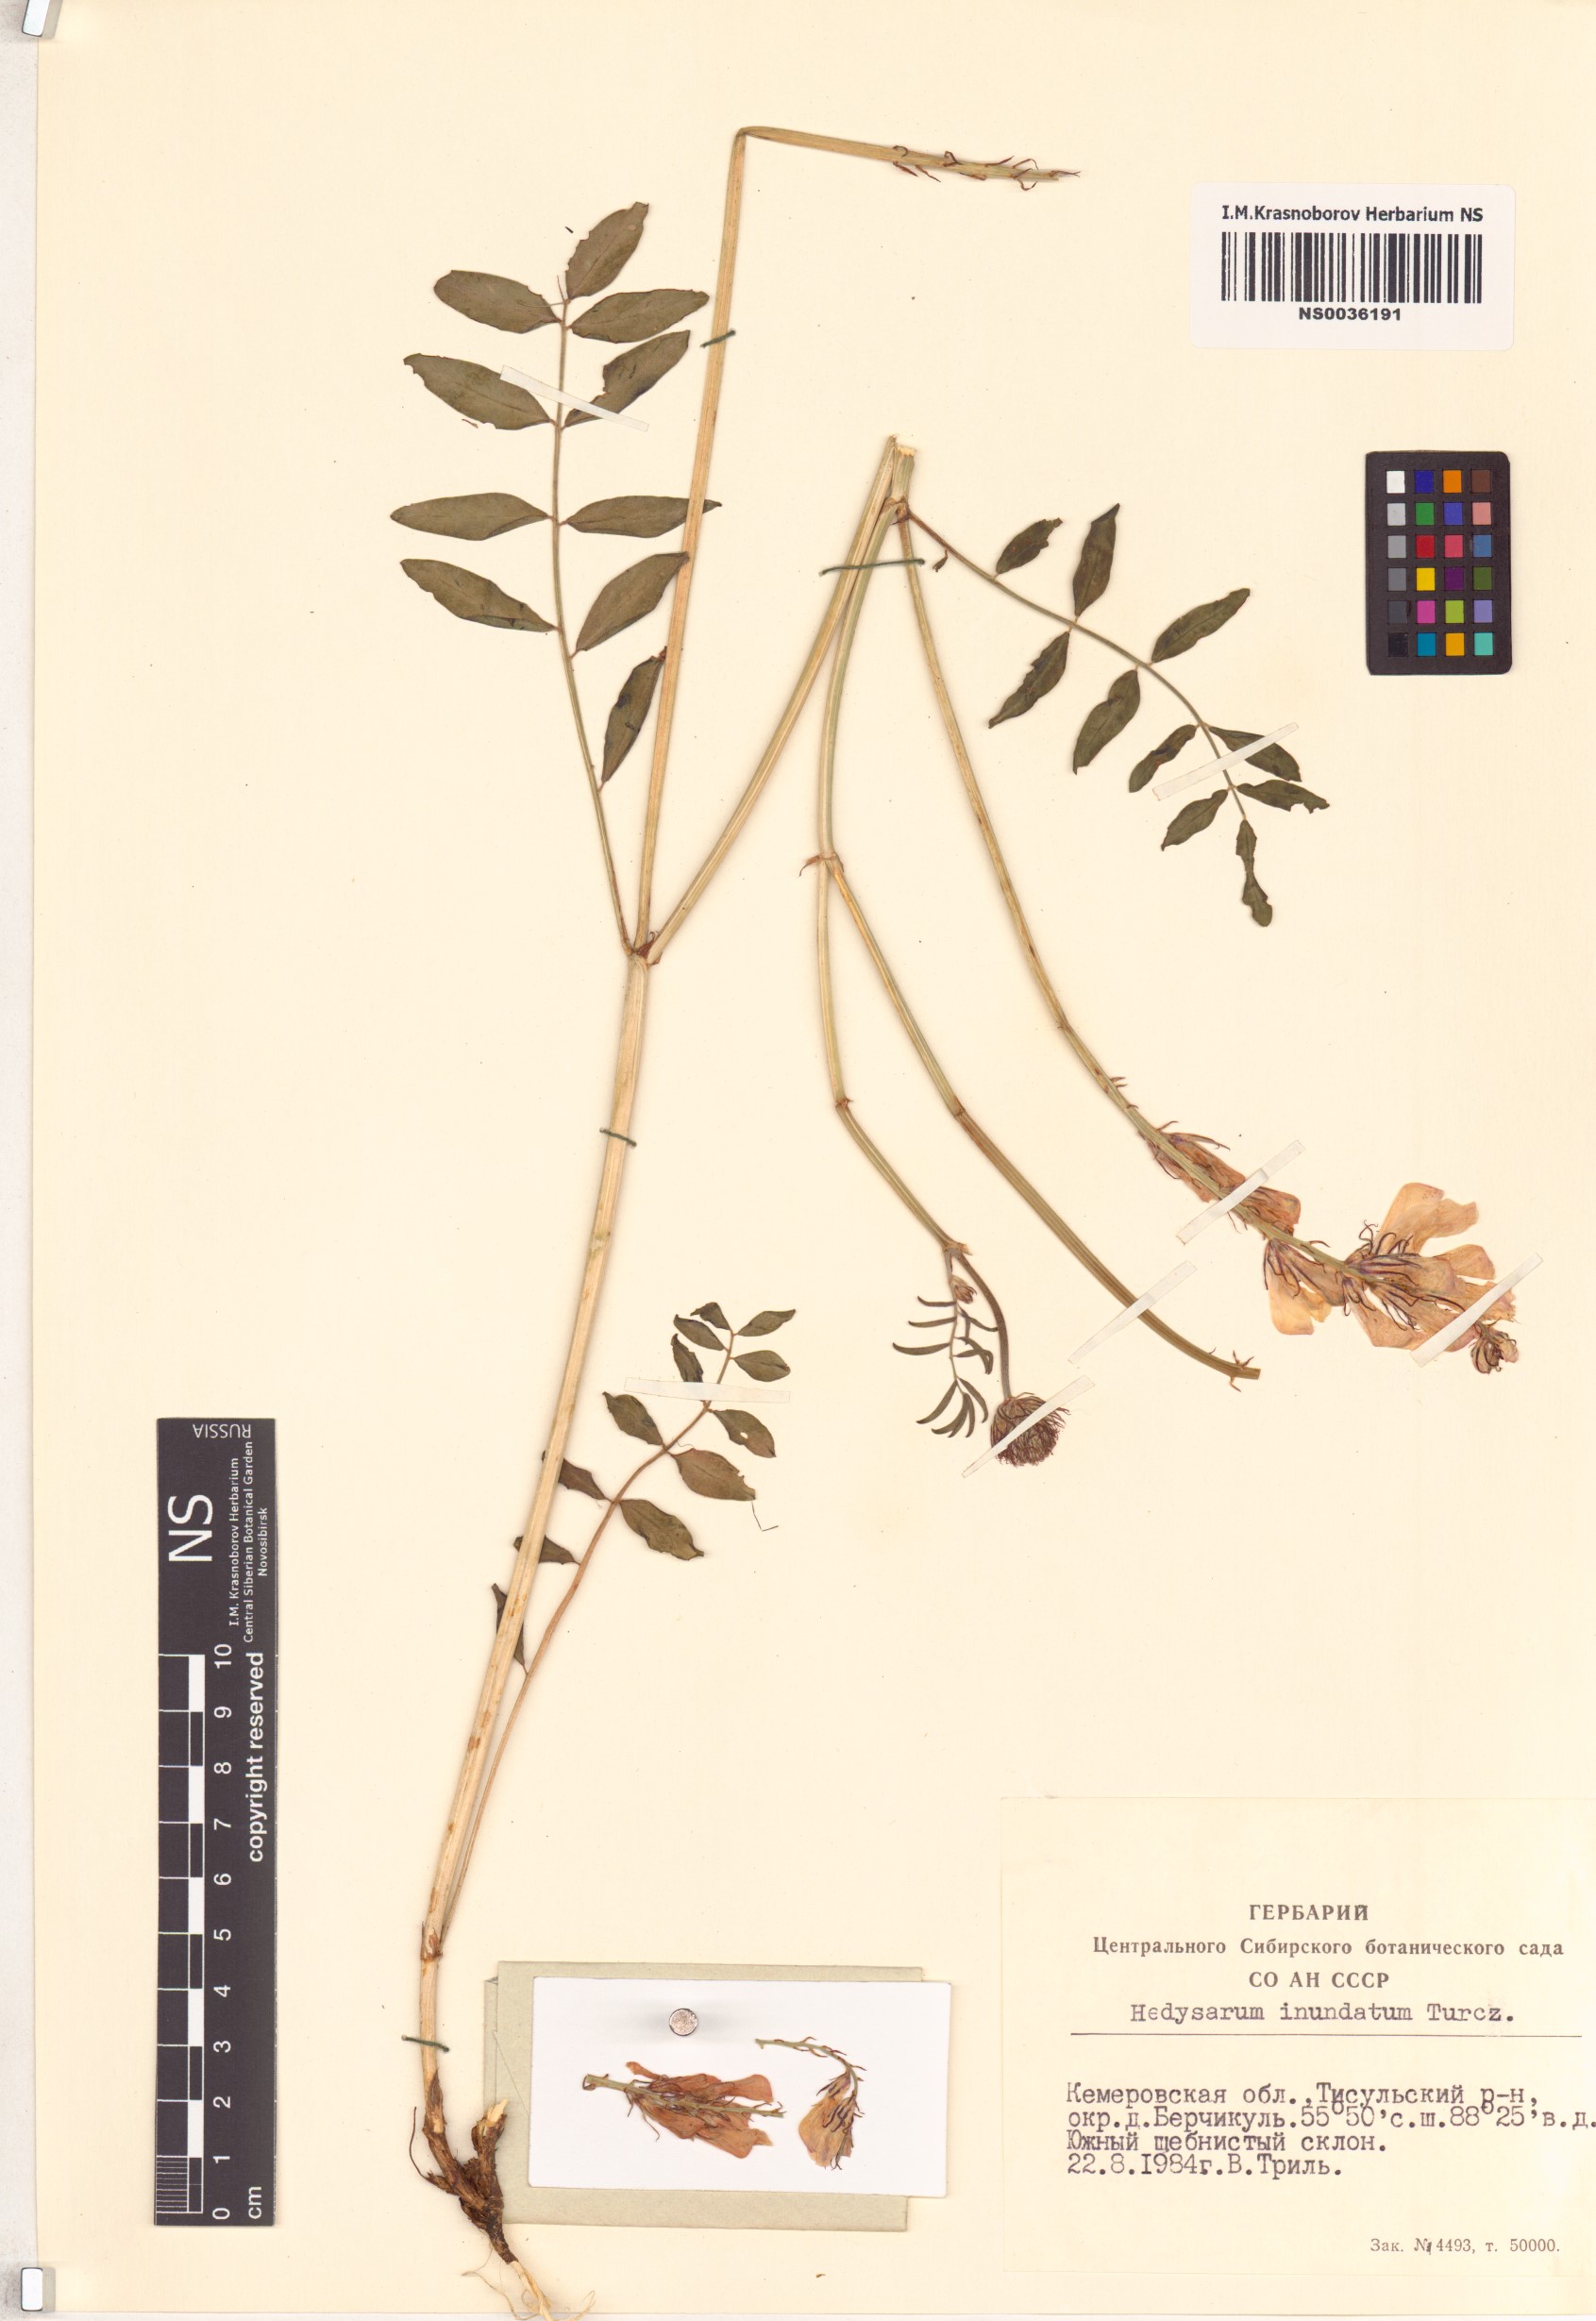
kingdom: Plantae
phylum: Tracheophyta
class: Magnoliopsida
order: Fabales
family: Fabaceae
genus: Hedysarum
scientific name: Hedysarum inundatum
